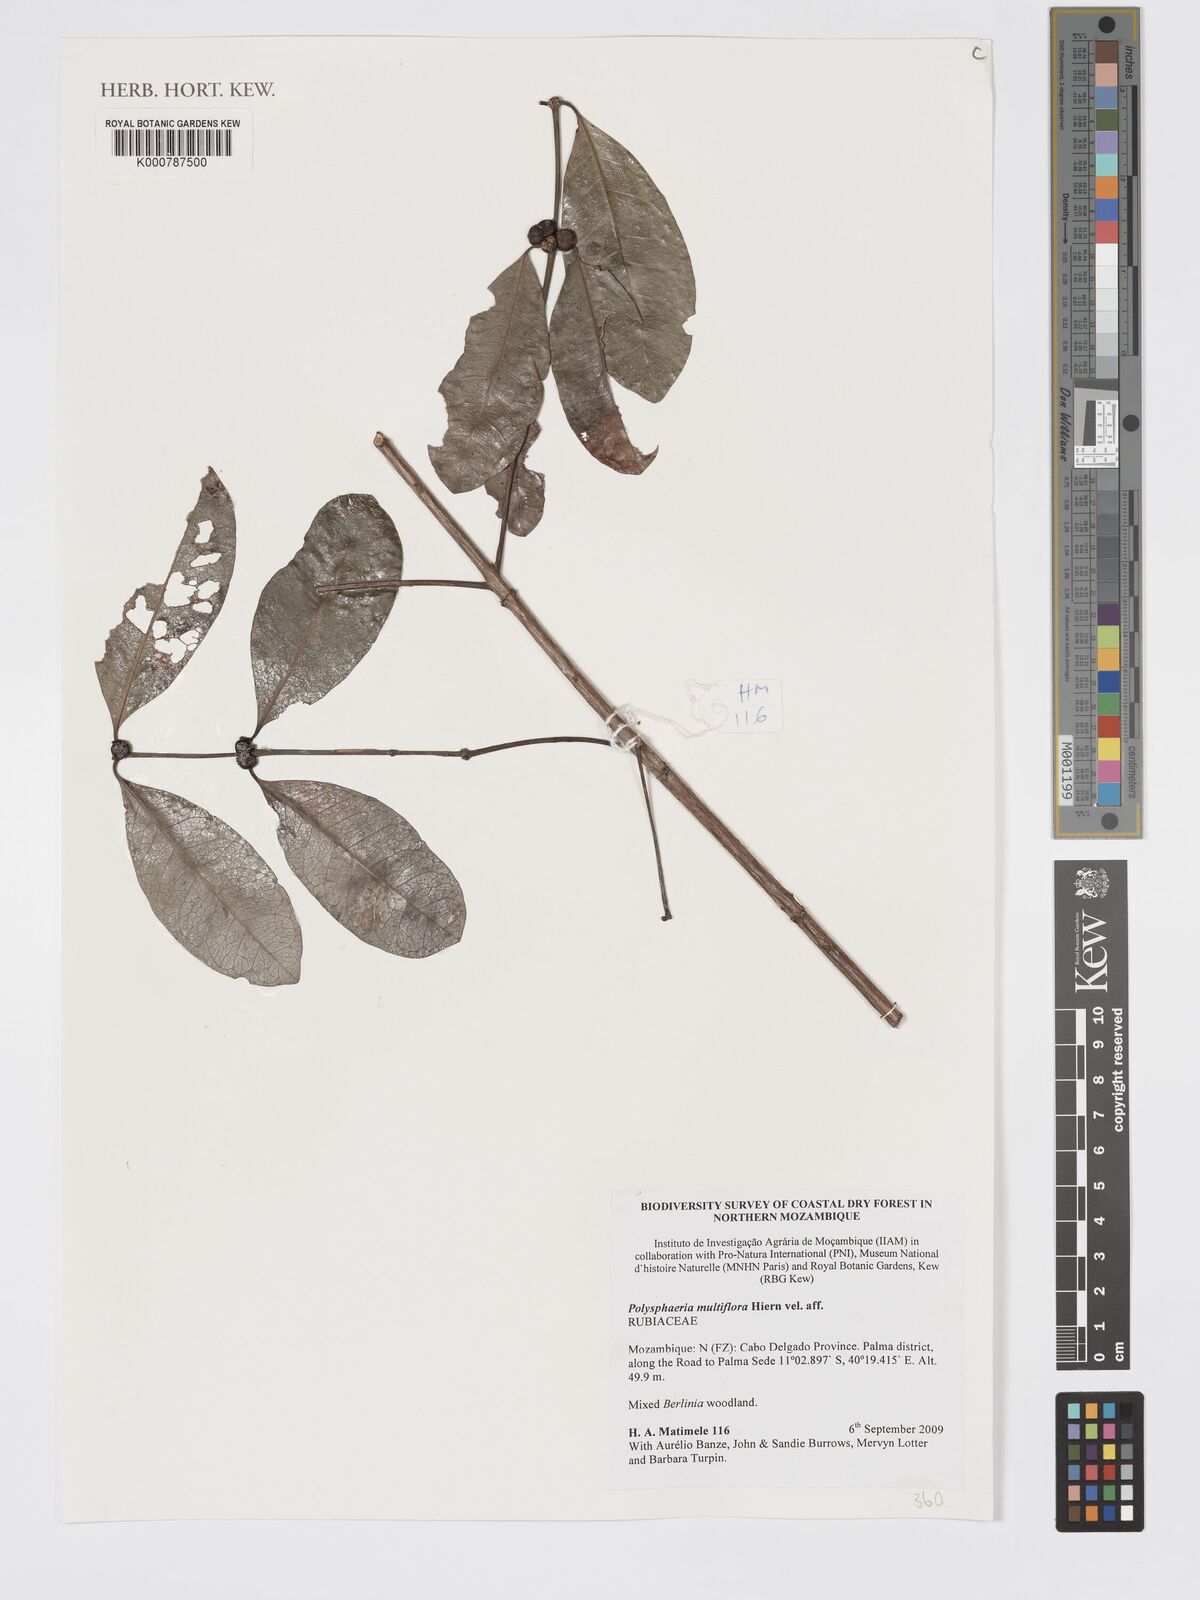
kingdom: Plantae
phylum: Tracheophyta
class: Magnoliopsida
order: Gentianales
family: Rubiaceae
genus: Polysphaeria
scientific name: Polysphaeria multiflora
